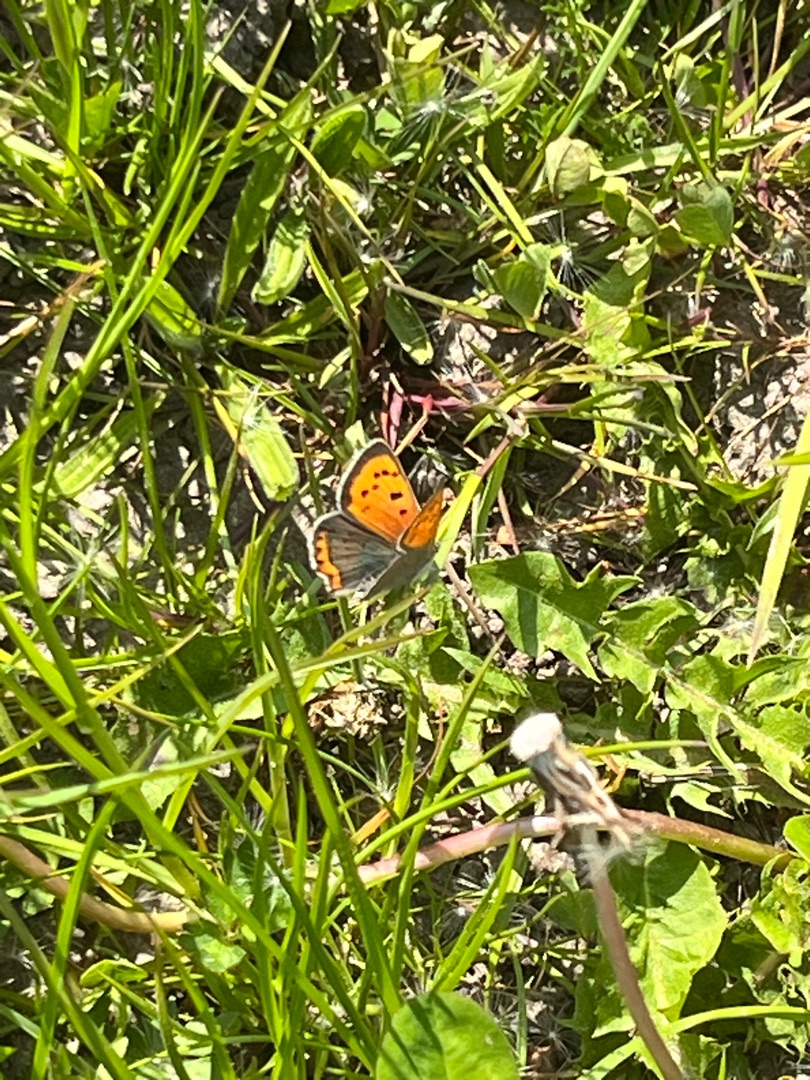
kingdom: Animalia
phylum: Arthropoda
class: Insecta
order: Lepidoptera
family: Lycaenidae
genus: Lycaena
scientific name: Lycaena phlaeas
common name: Lille ildfugl
